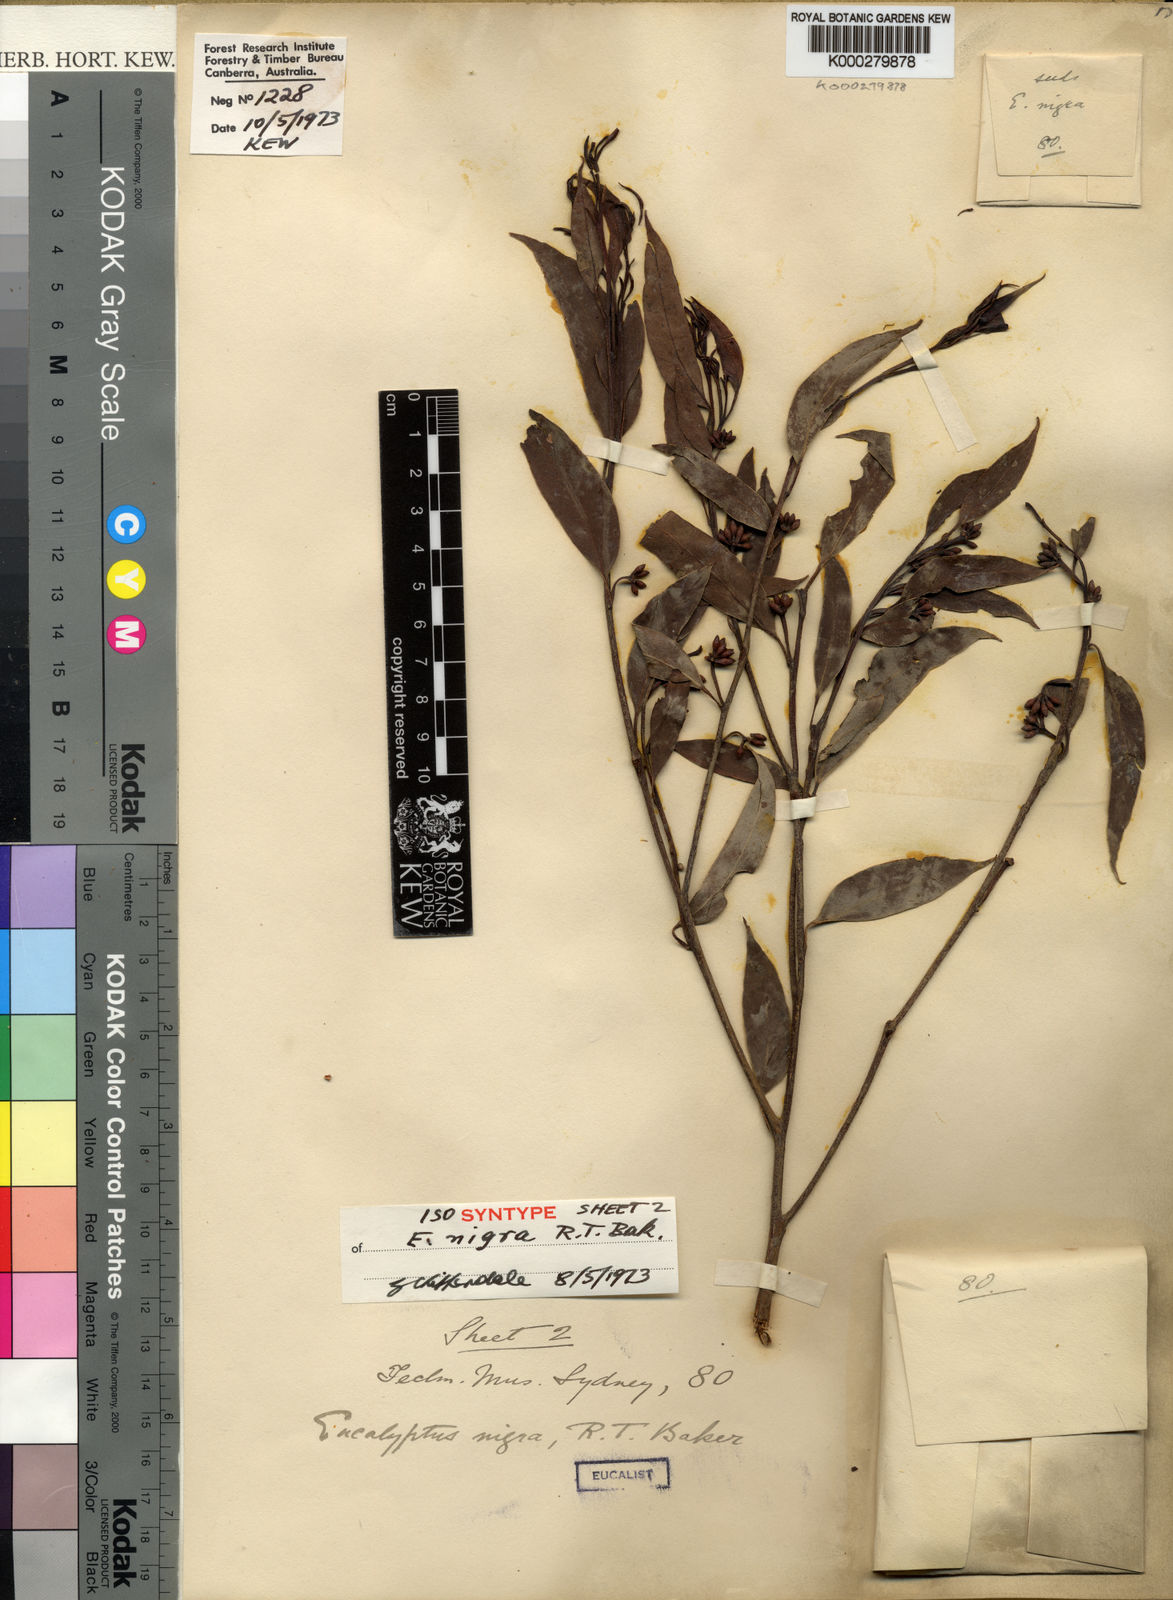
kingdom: Plantae
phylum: Tracheophyta
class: Magnoliopsida
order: Myrtales
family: Myrtaceae
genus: Eucalyptus
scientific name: Eucalyptus nigra
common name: White-stringybark
